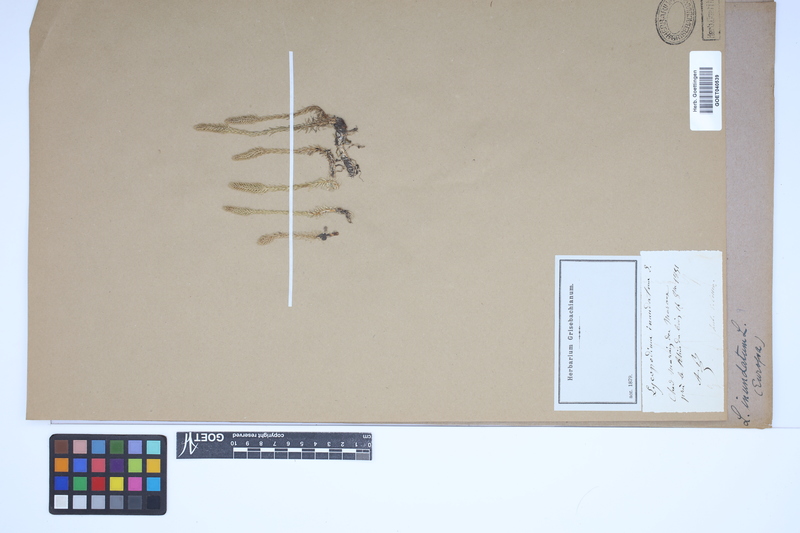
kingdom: Plantae
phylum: Tracheophyta
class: Lycopodiopsida
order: Lycopodiales
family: Lycopodiaceae
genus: Lycopodiella
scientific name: Lycopodiella inundata
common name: Marsh clubmoss
